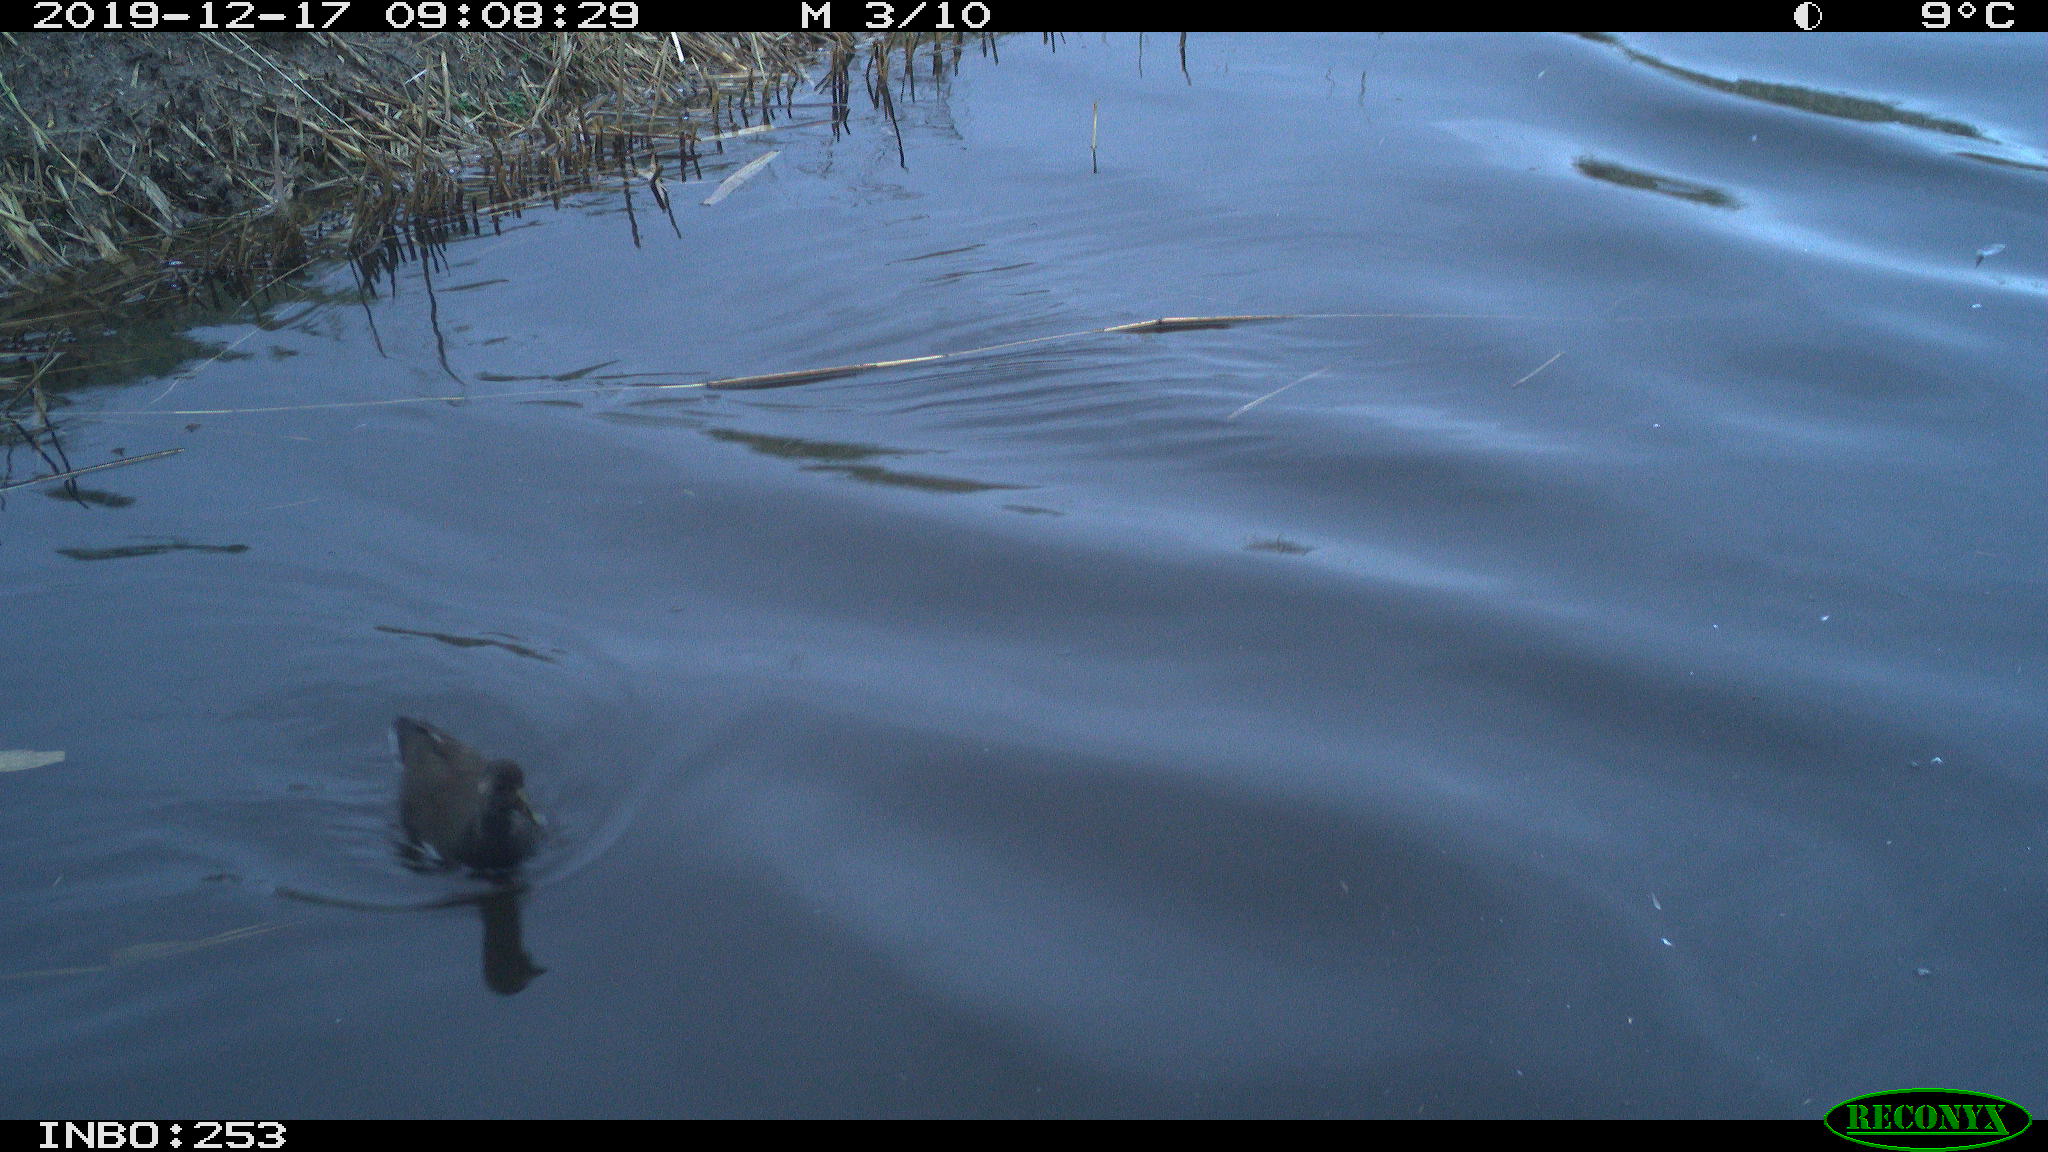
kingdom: Animalia
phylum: Chordata
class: Aves
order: Gruiformes
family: Rallidae
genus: Gallinula
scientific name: Gallinula chloropus
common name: Common moorhen
